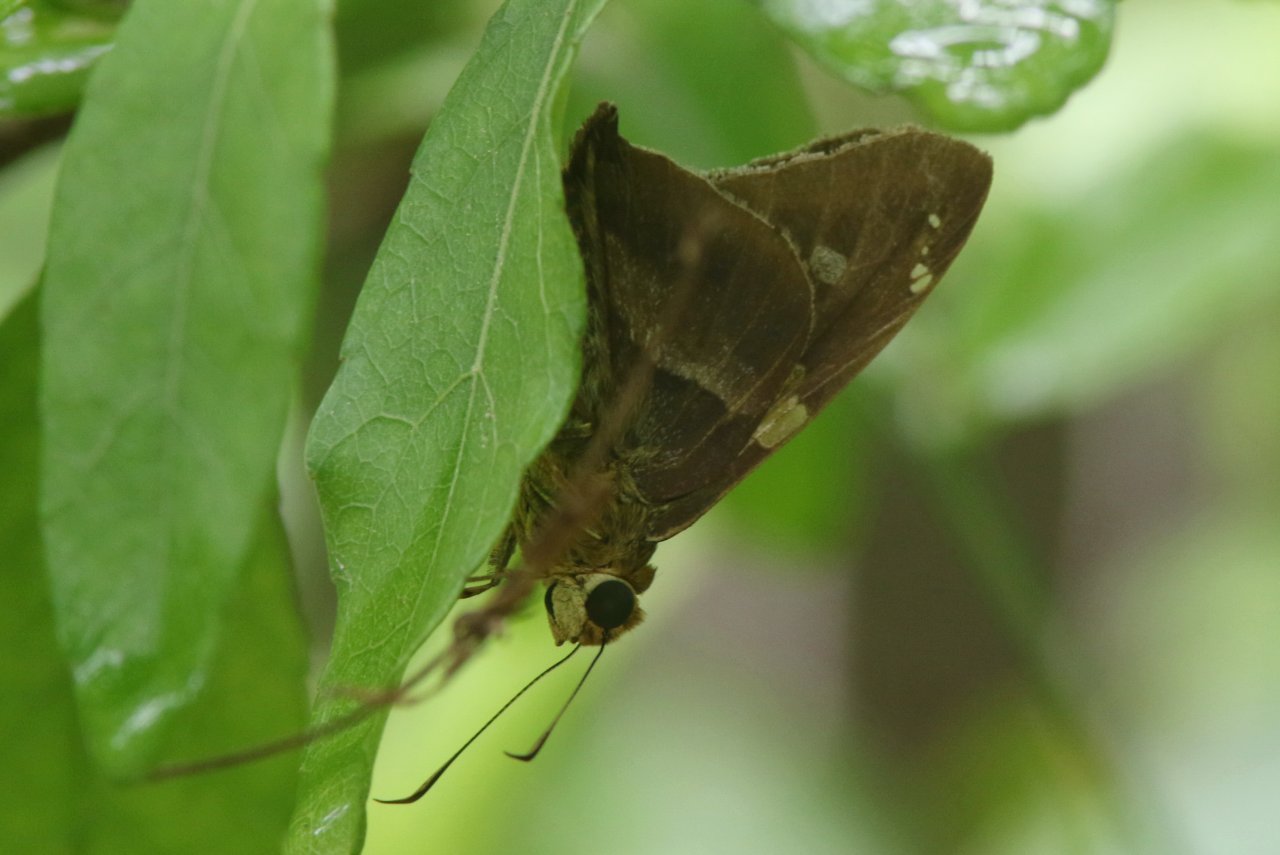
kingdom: Animalia
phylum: Arthropoda
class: Insecta
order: Lepidoptera
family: Hesperiidae
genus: Aguna
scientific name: Aguna asander
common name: Gold-spotted Aguna
